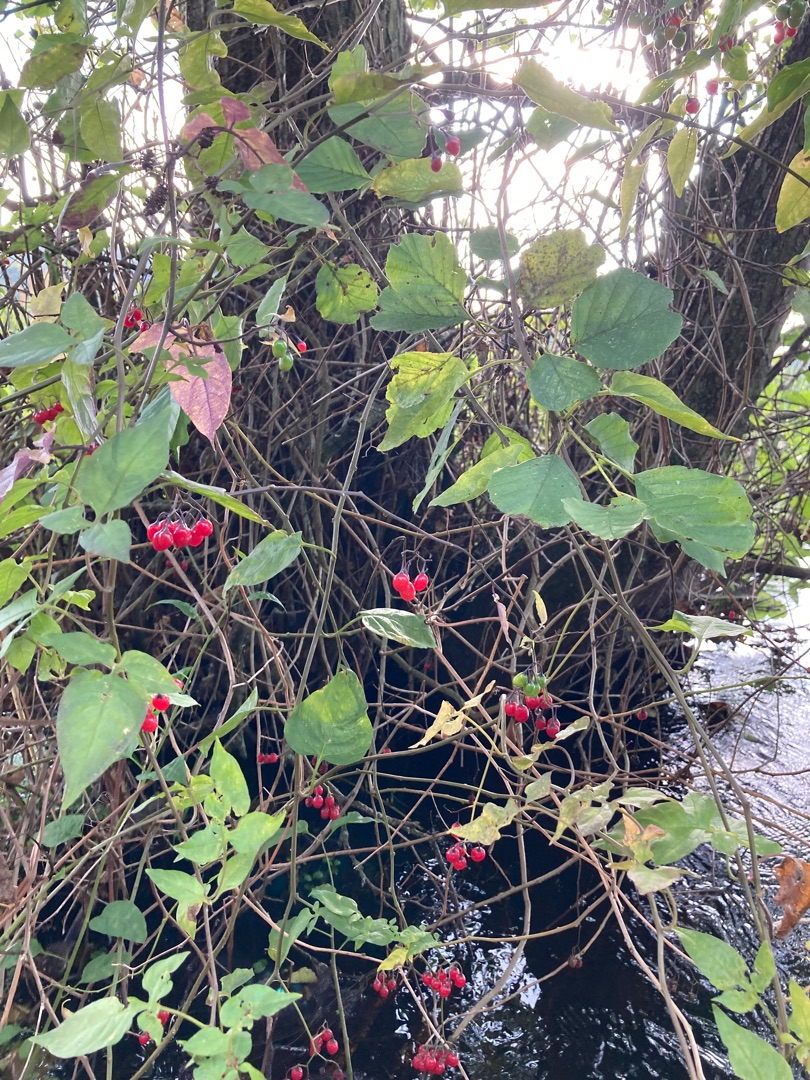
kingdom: Plantae
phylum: Tracheophyta
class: Magnoliopsida
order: Solanales
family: Solanaceae
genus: Solanum
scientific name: Solanum dulcamara
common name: Bittersød natskygge
